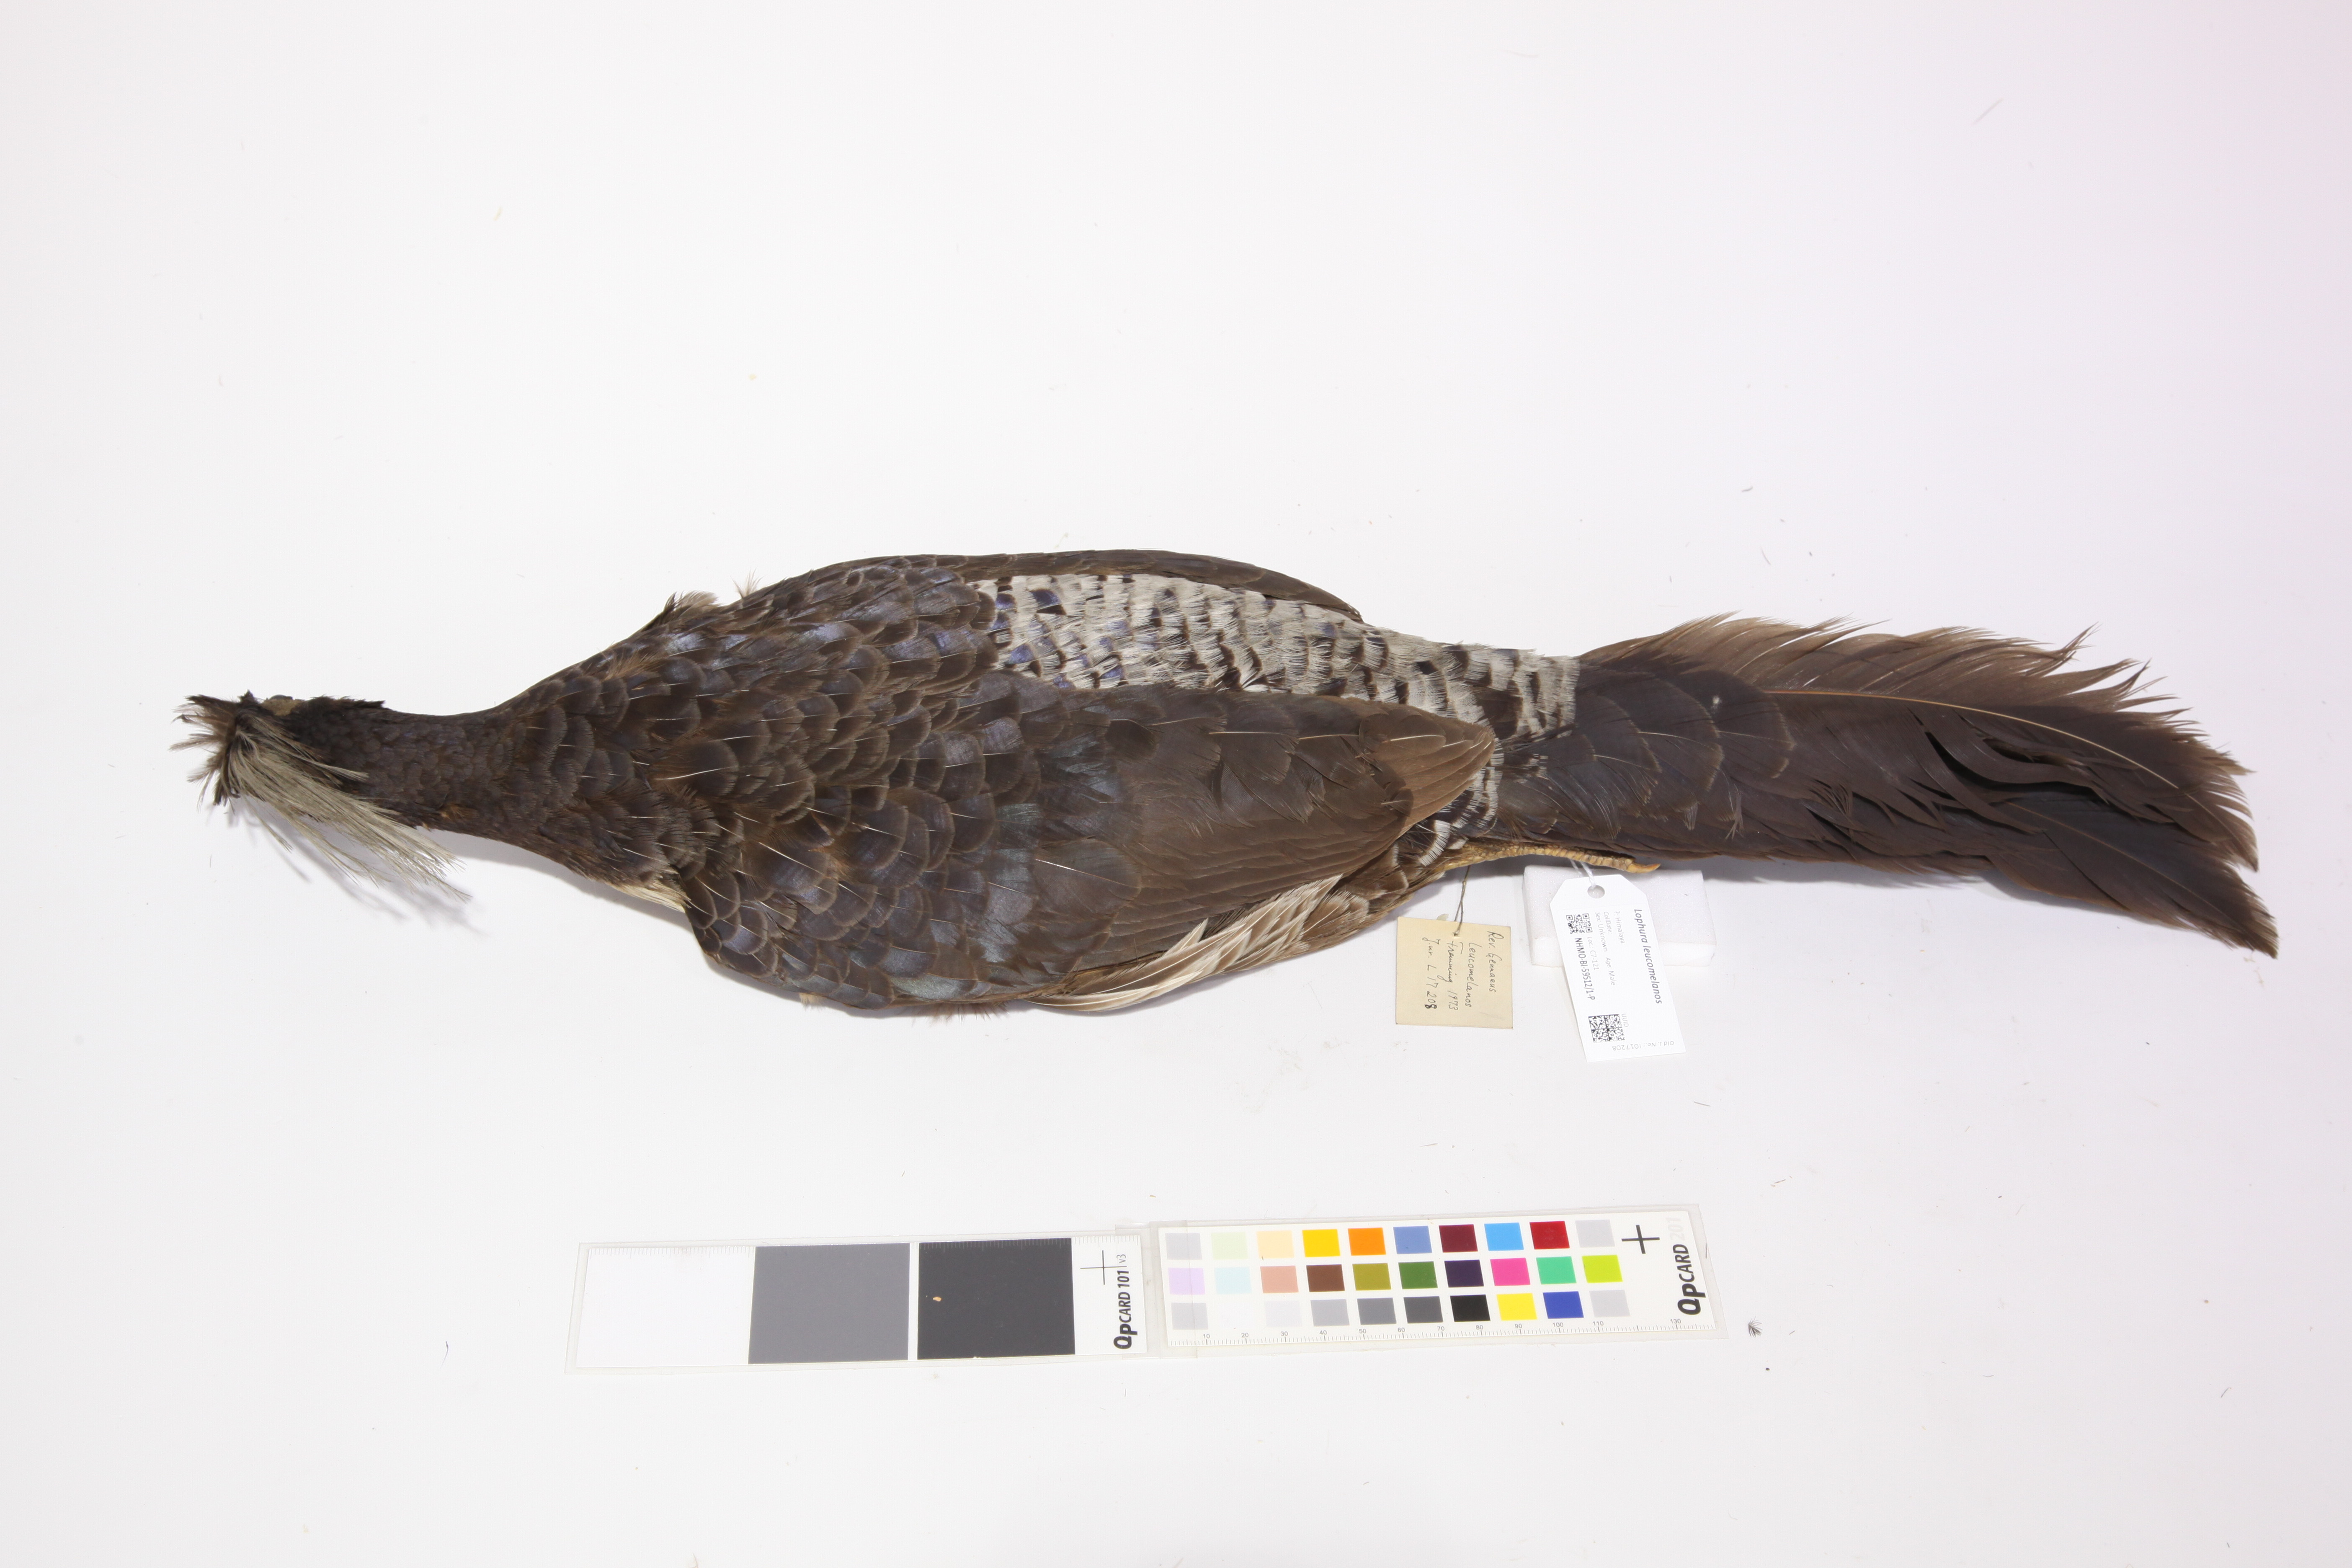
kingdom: Animalia
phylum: Chordata
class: Aves
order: Galliformes
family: Phasianidae
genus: Lophura
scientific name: Lophura leucomelanos
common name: Kalij pheasant
